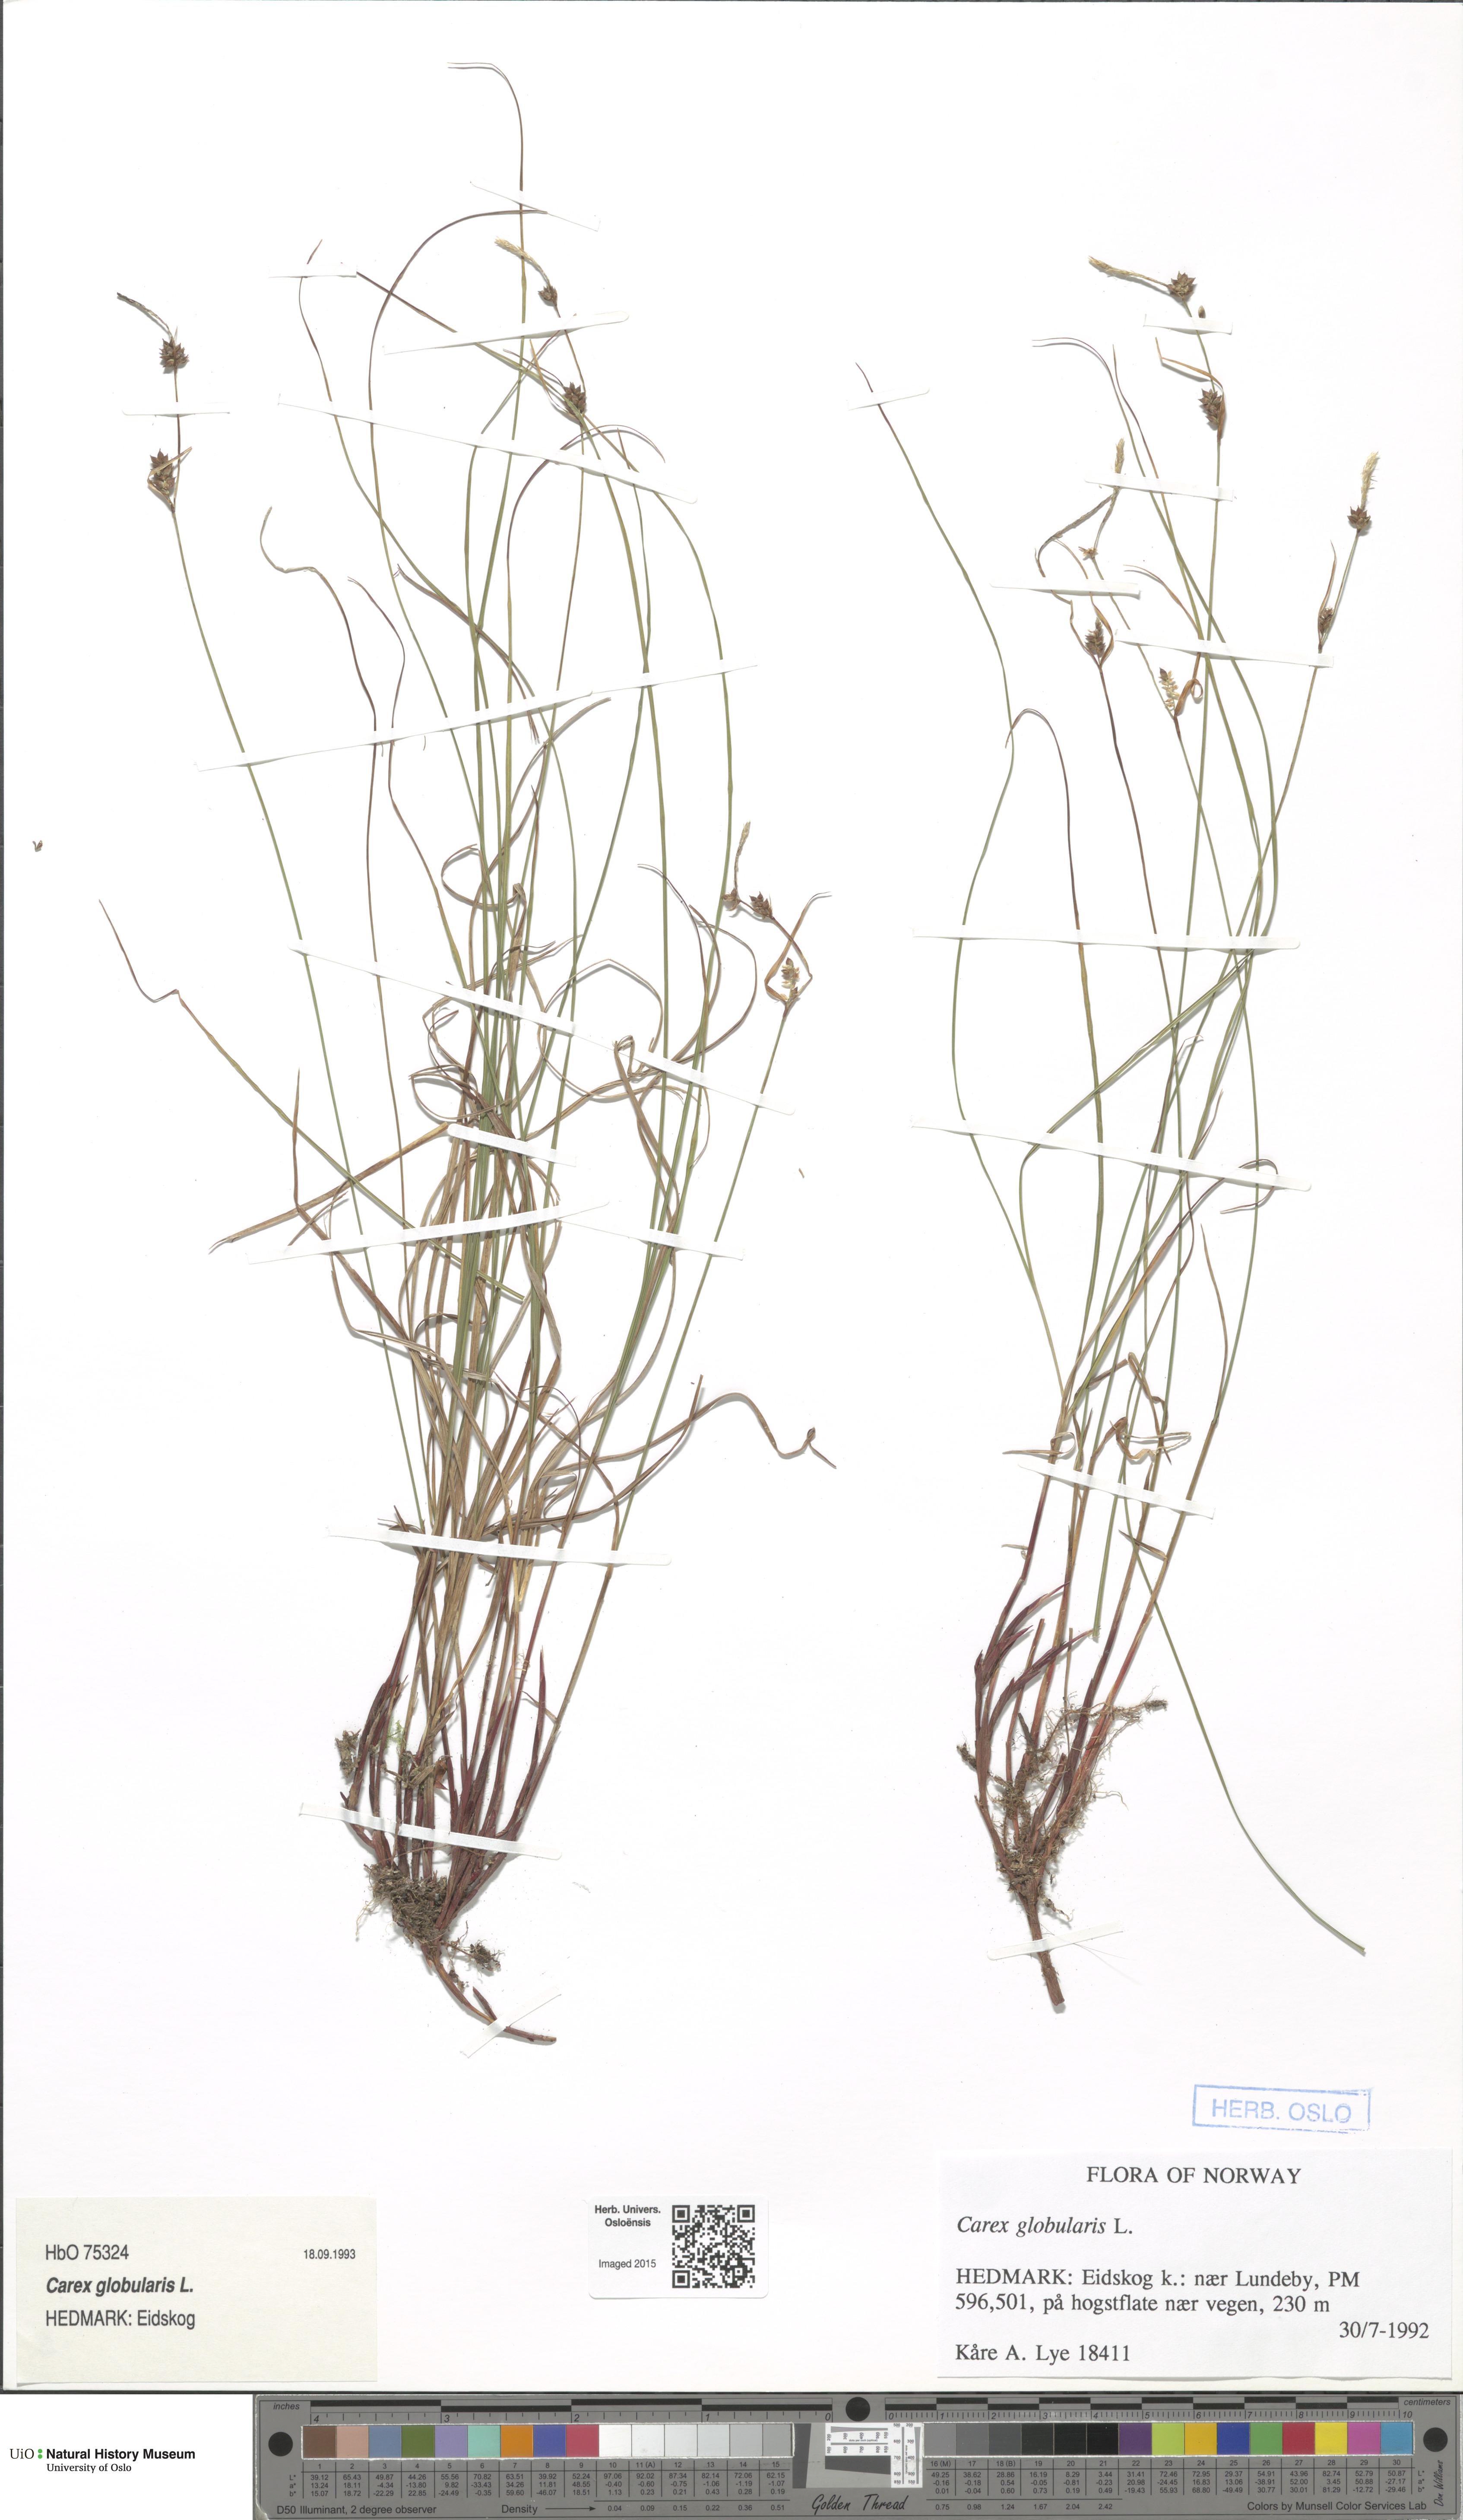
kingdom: Plantae
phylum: Tracheophyta
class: Liliopsida
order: Poales
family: Cyperaceae
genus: Carex
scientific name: Carex globularis
